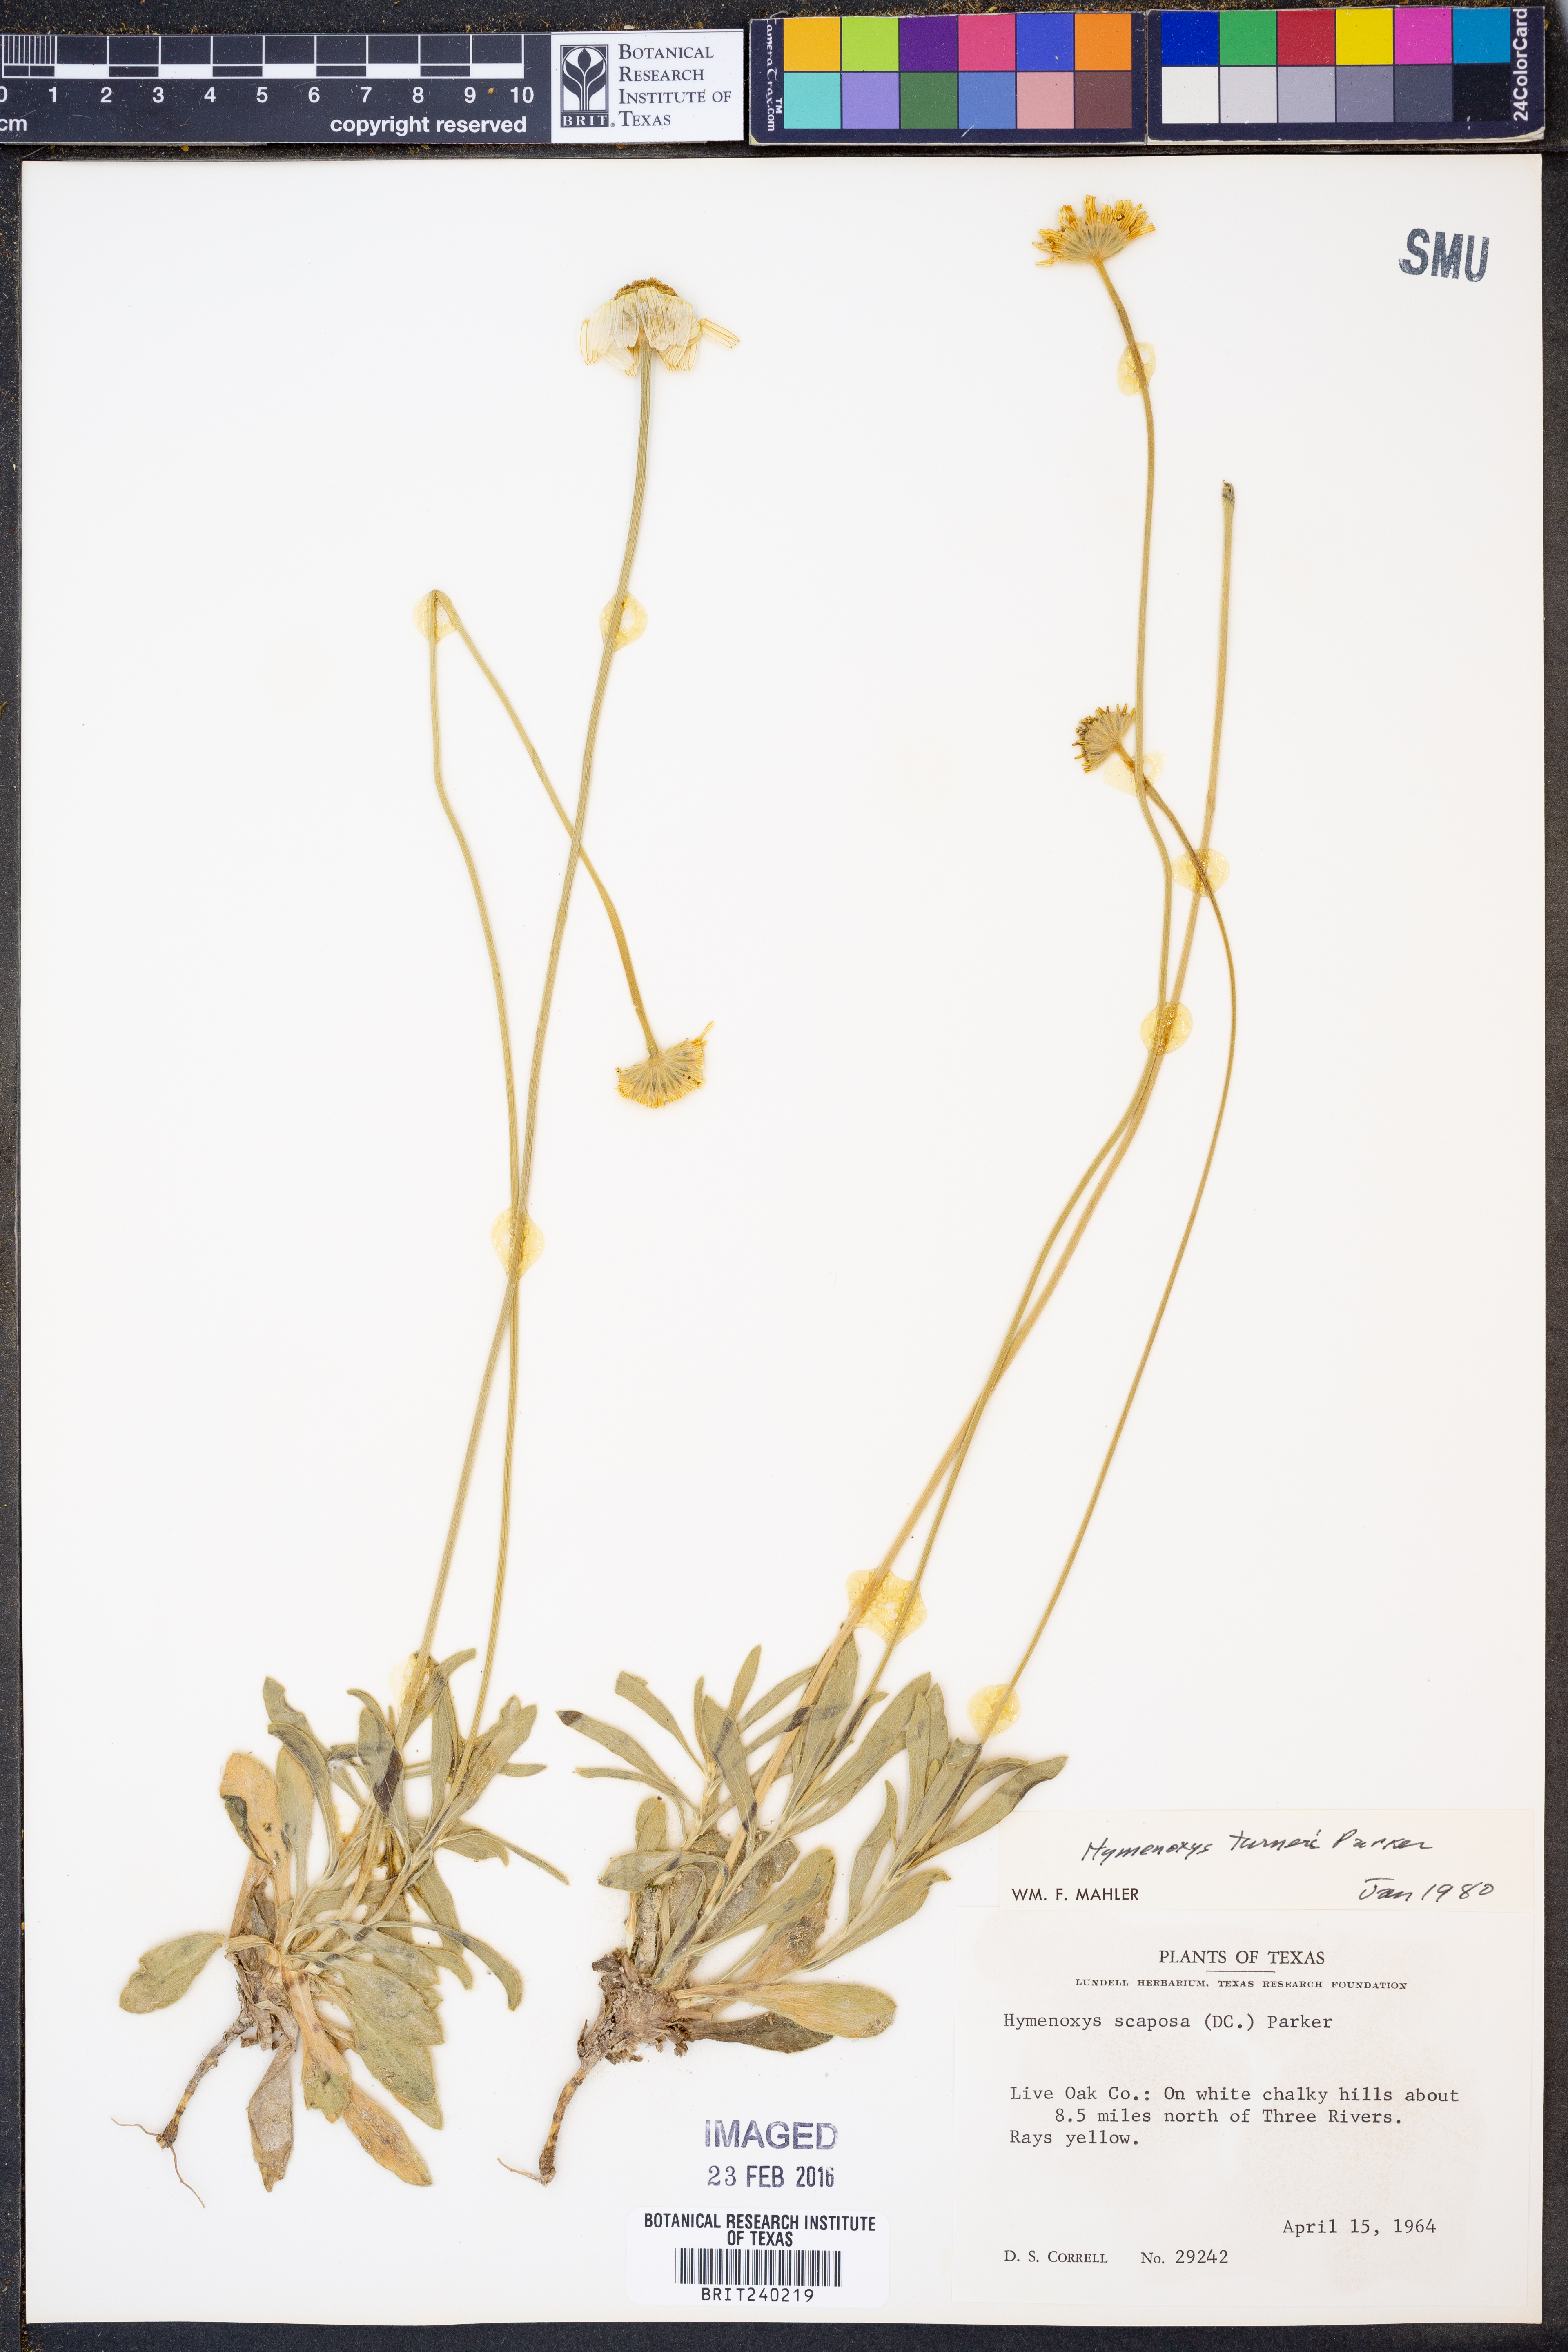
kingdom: Plantae
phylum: Tracheophyta
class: Magnoliopsida
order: Asterales
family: Asteraceae
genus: Tetraneuris
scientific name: Tetraneuris turneri
